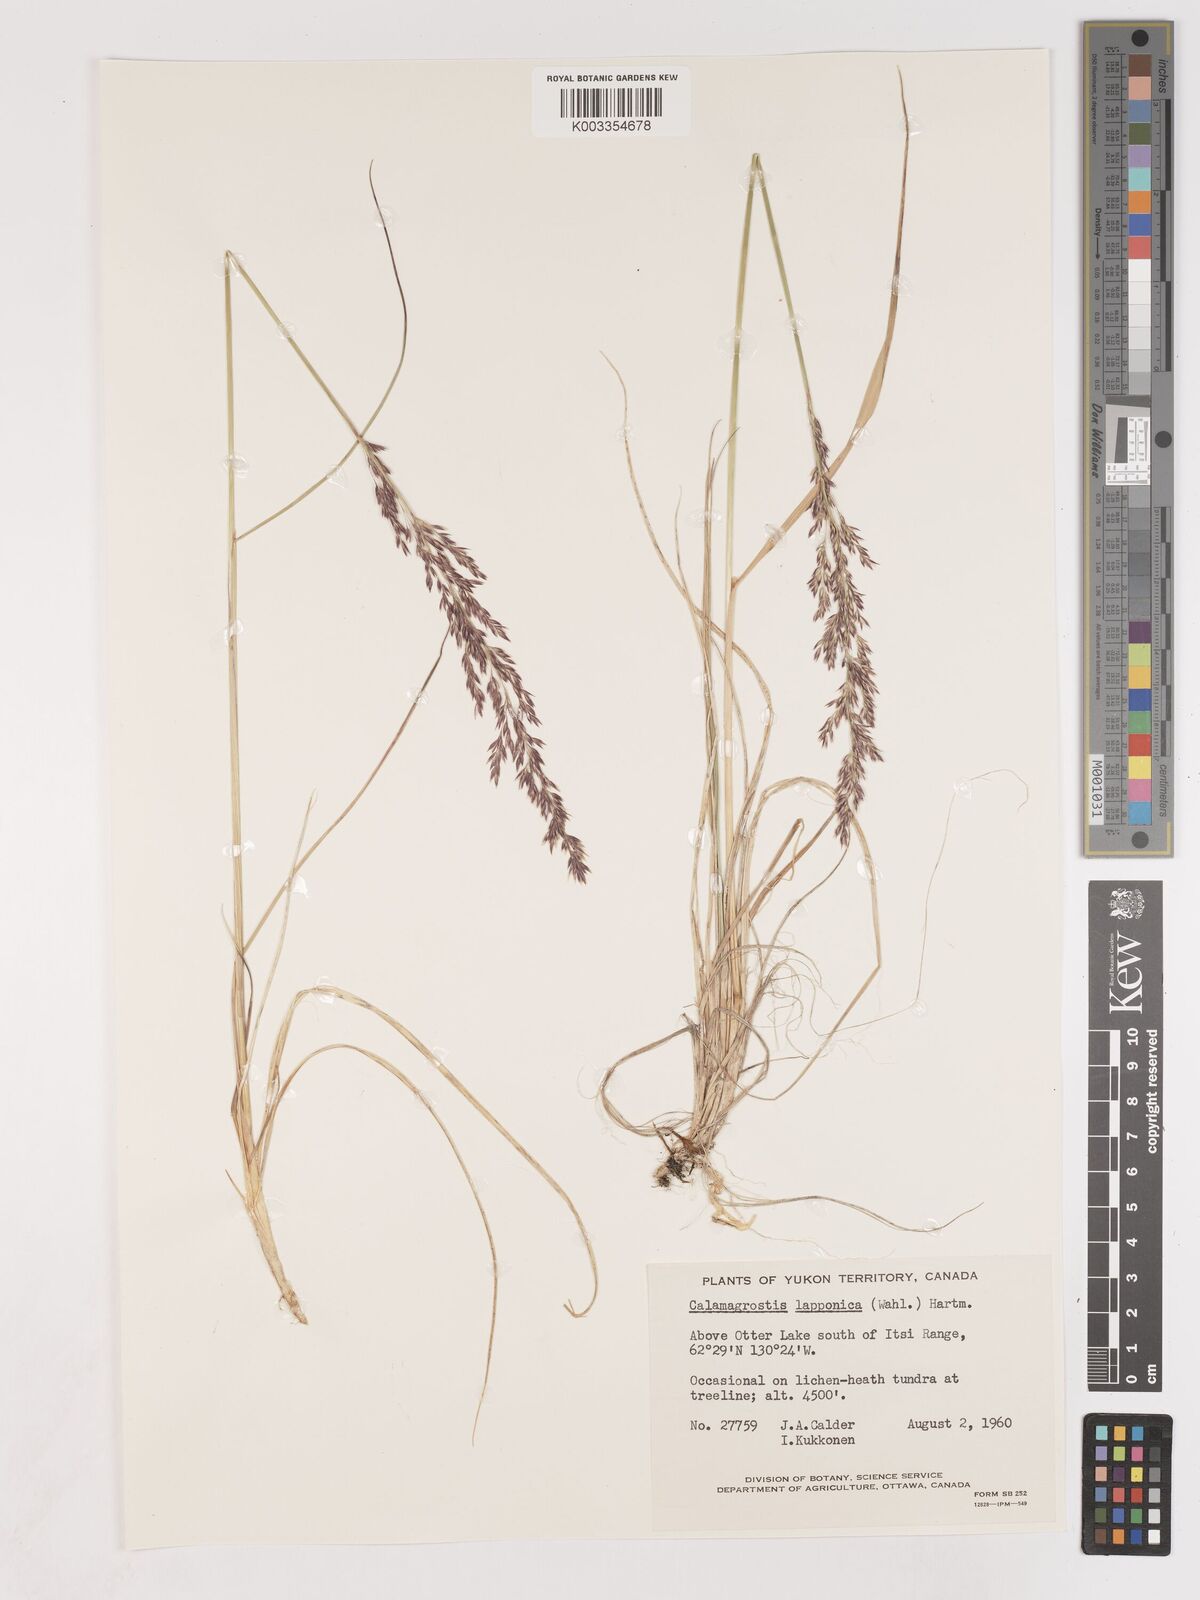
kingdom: Plantae
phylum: Tracheophyta
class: Liliopsida
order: Poales
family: Poaceae
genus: Calamagrostis
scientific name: Calamagrostis lapponica
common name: Lapland reedgrass
